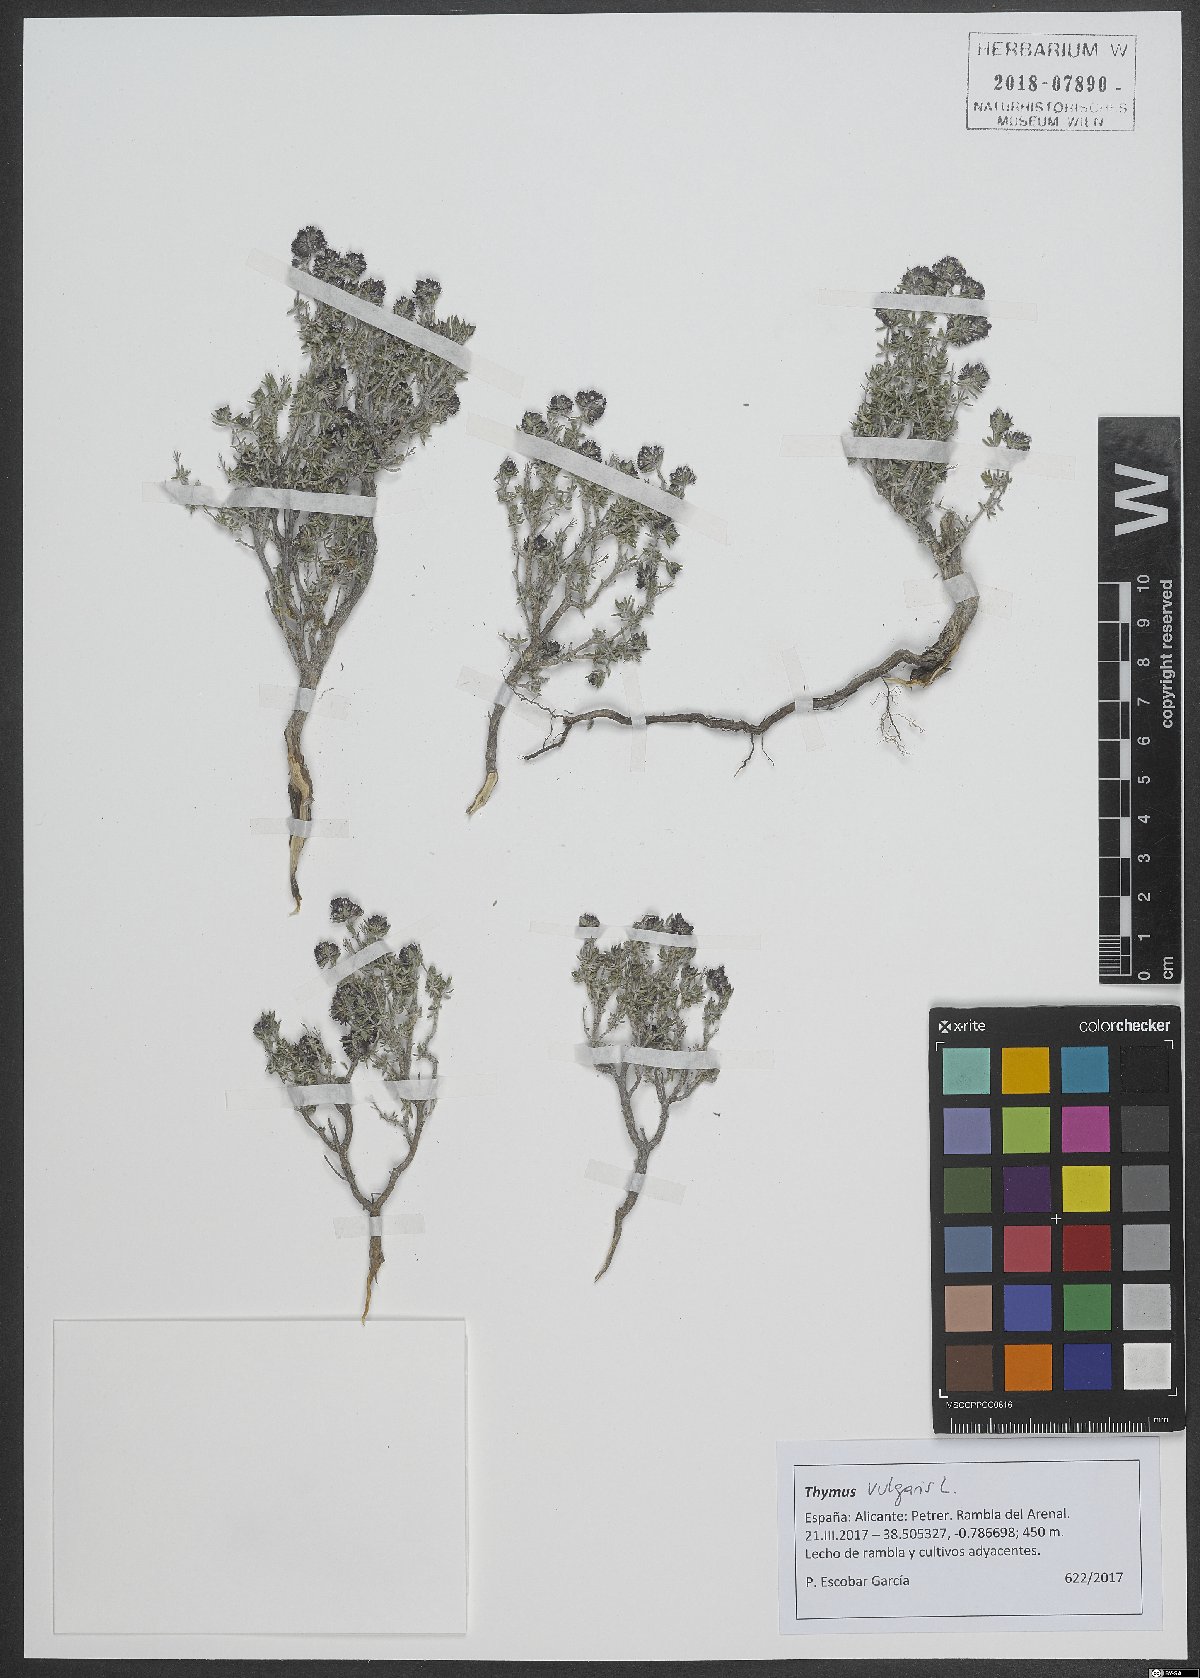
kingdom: Plantae
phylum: Tracheophyta
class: Magnoliopsida
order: Lamiales
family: Lamiaceae
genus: Thymus
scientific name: Thymus vulgaris
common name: Garden thyme
